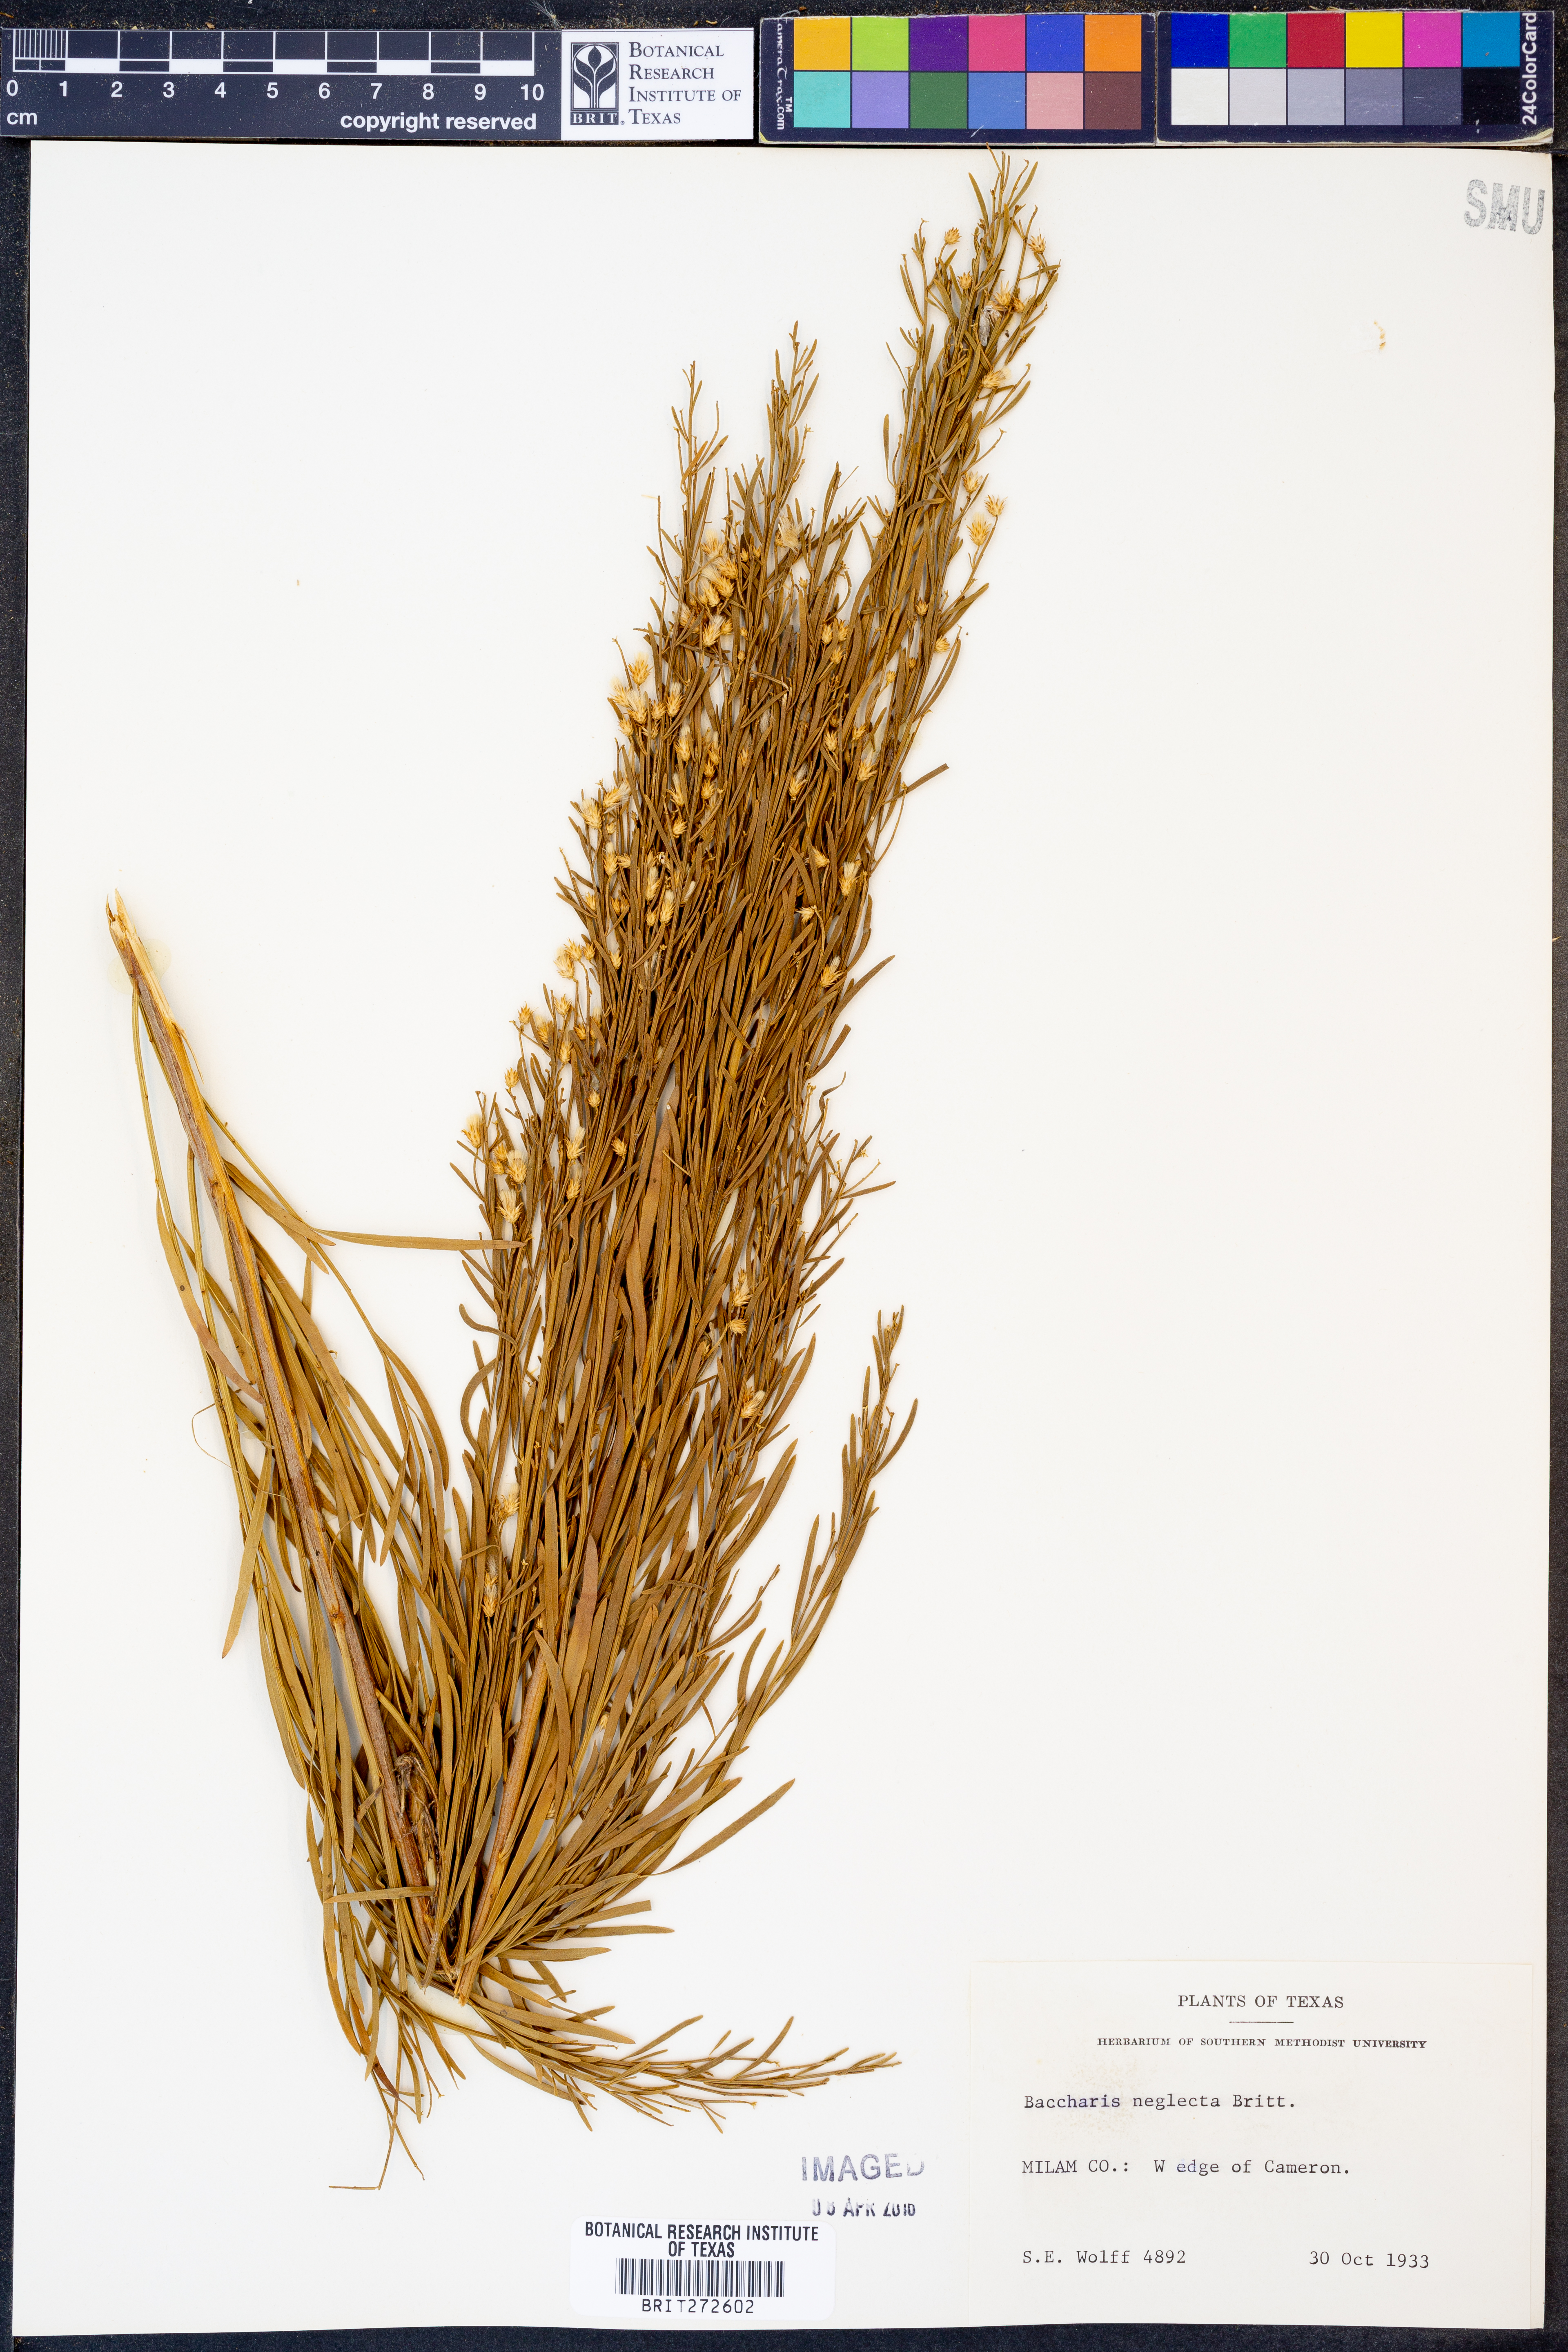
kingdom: Plantae
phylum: Tracheophyta
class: Magnoliopsida
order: Asterales
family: Asteraceae
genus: Baccharis
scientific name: Baccharis neglecta
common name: Roosevelt-weed
